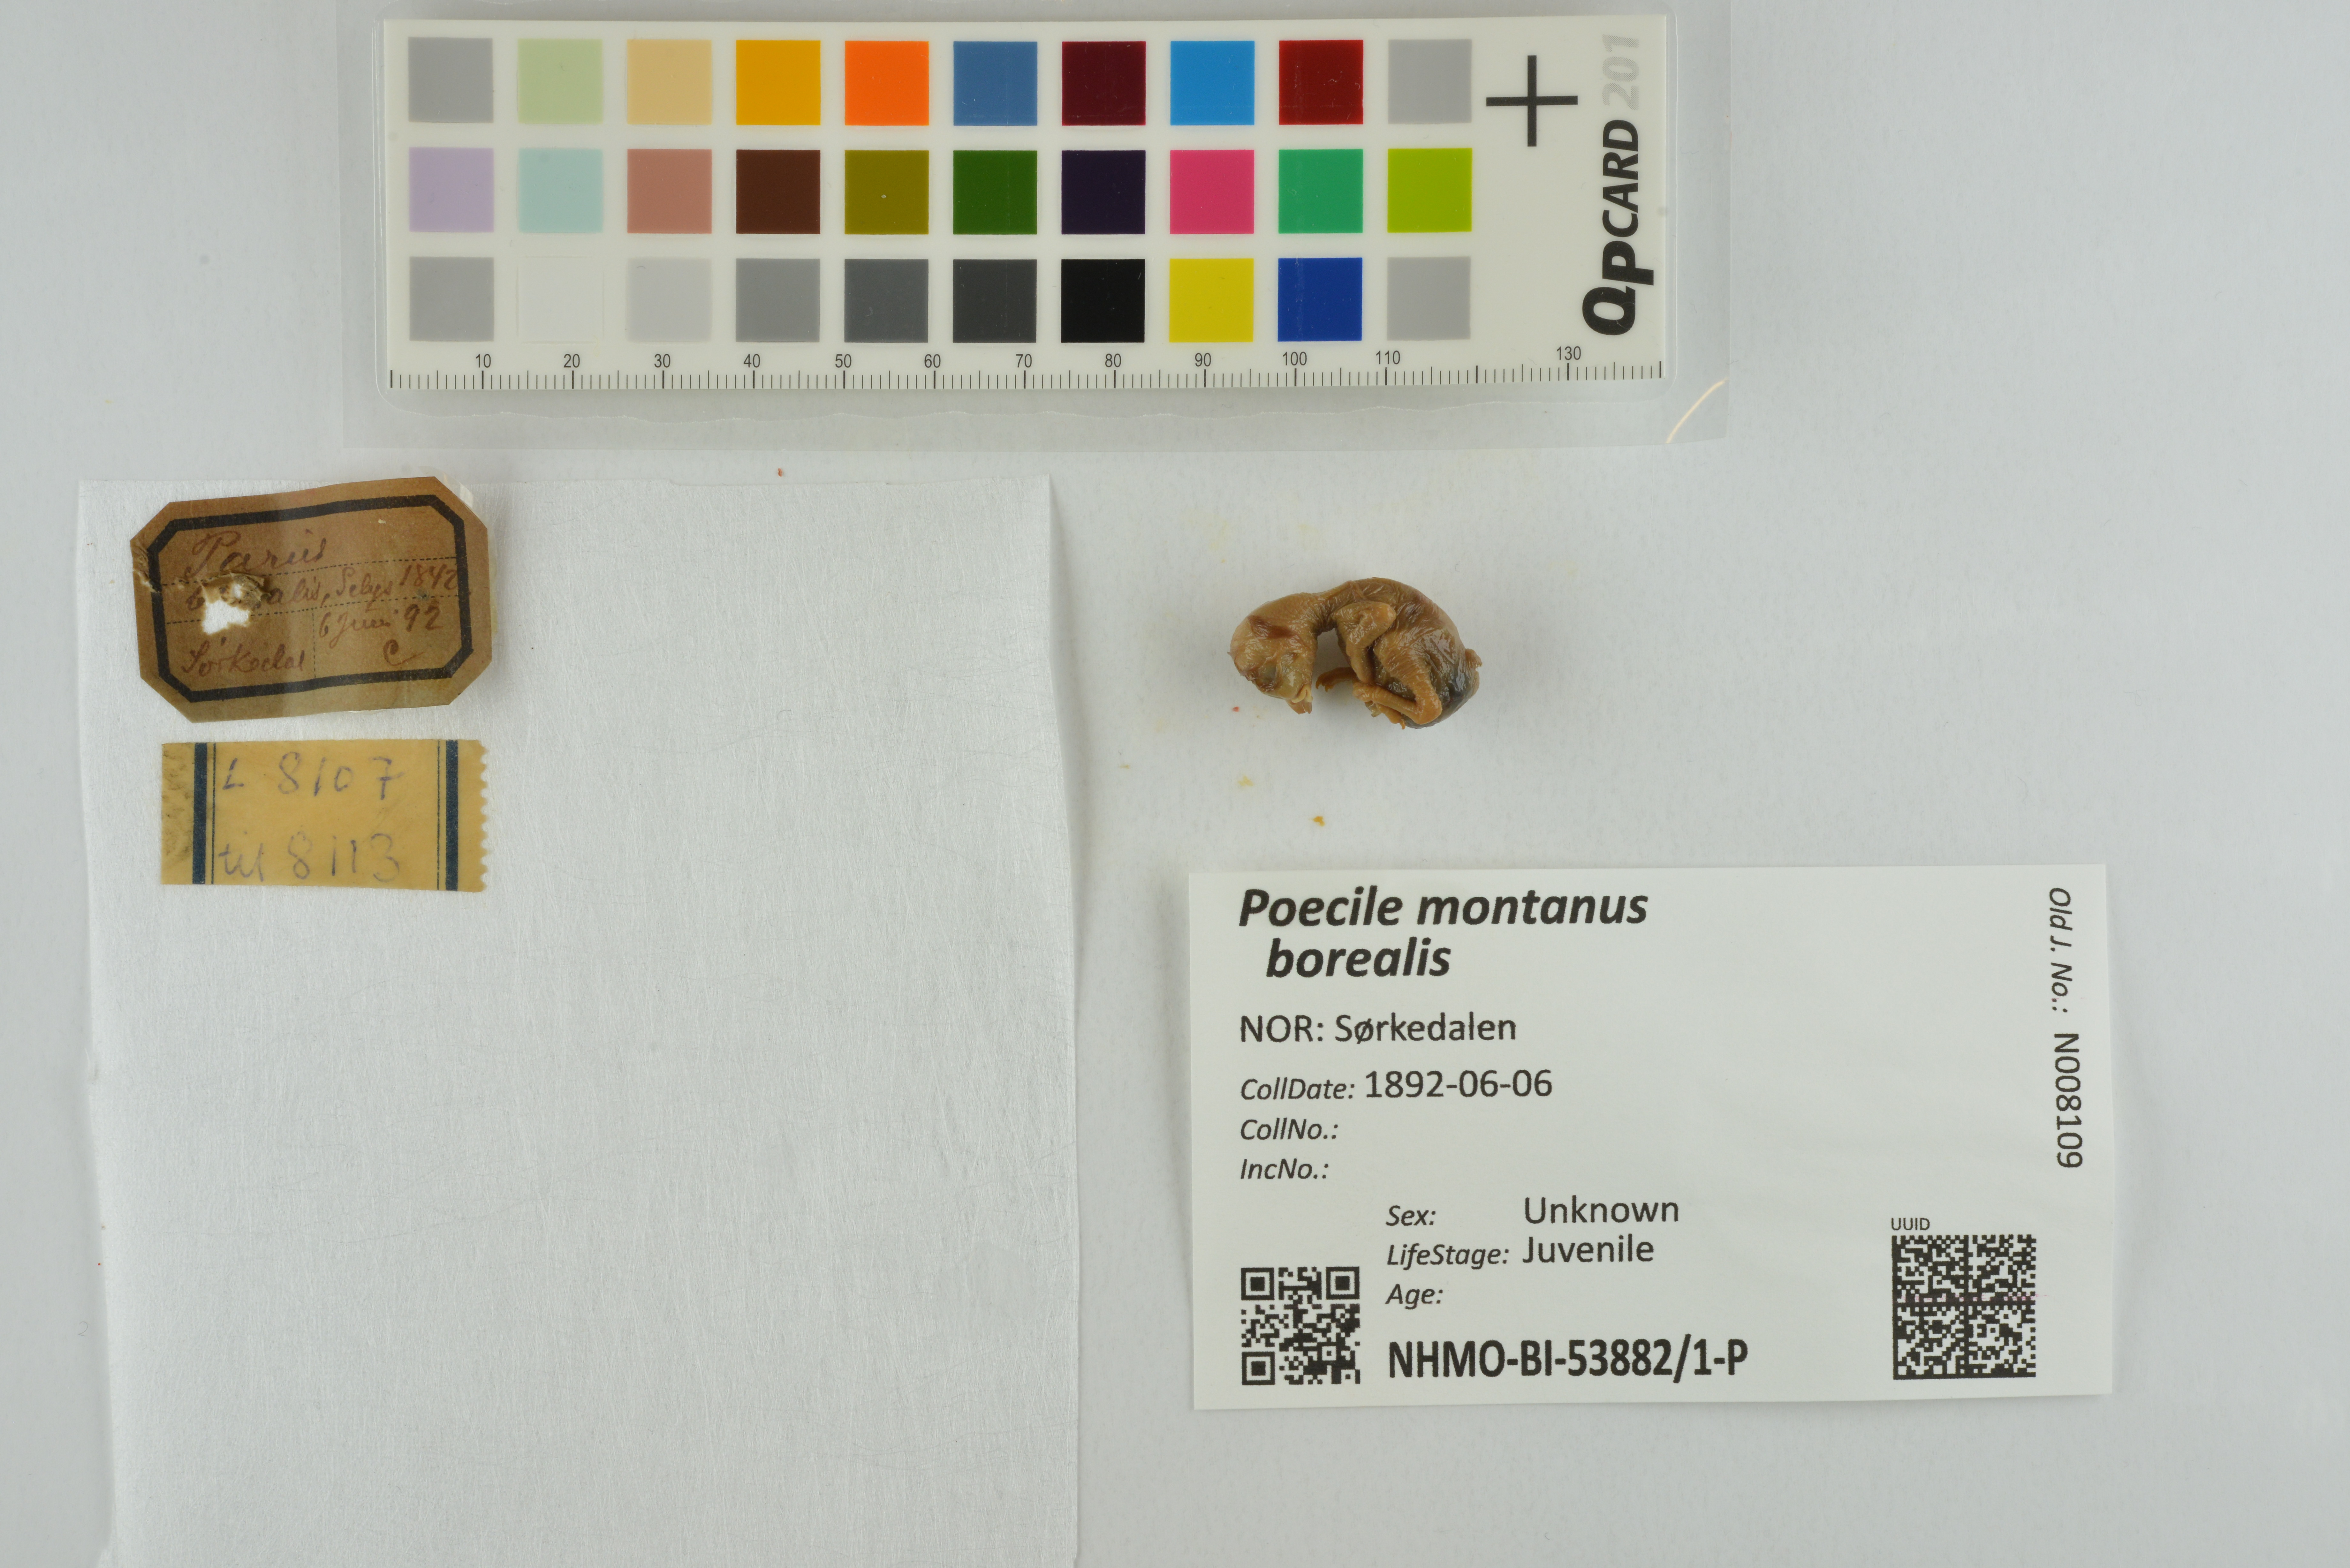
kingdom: Animalia
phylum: Chordata
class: Aves
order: Passeriformes
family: Paridae
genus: Poecile
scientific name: Poecile montanus
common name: Willow tit
